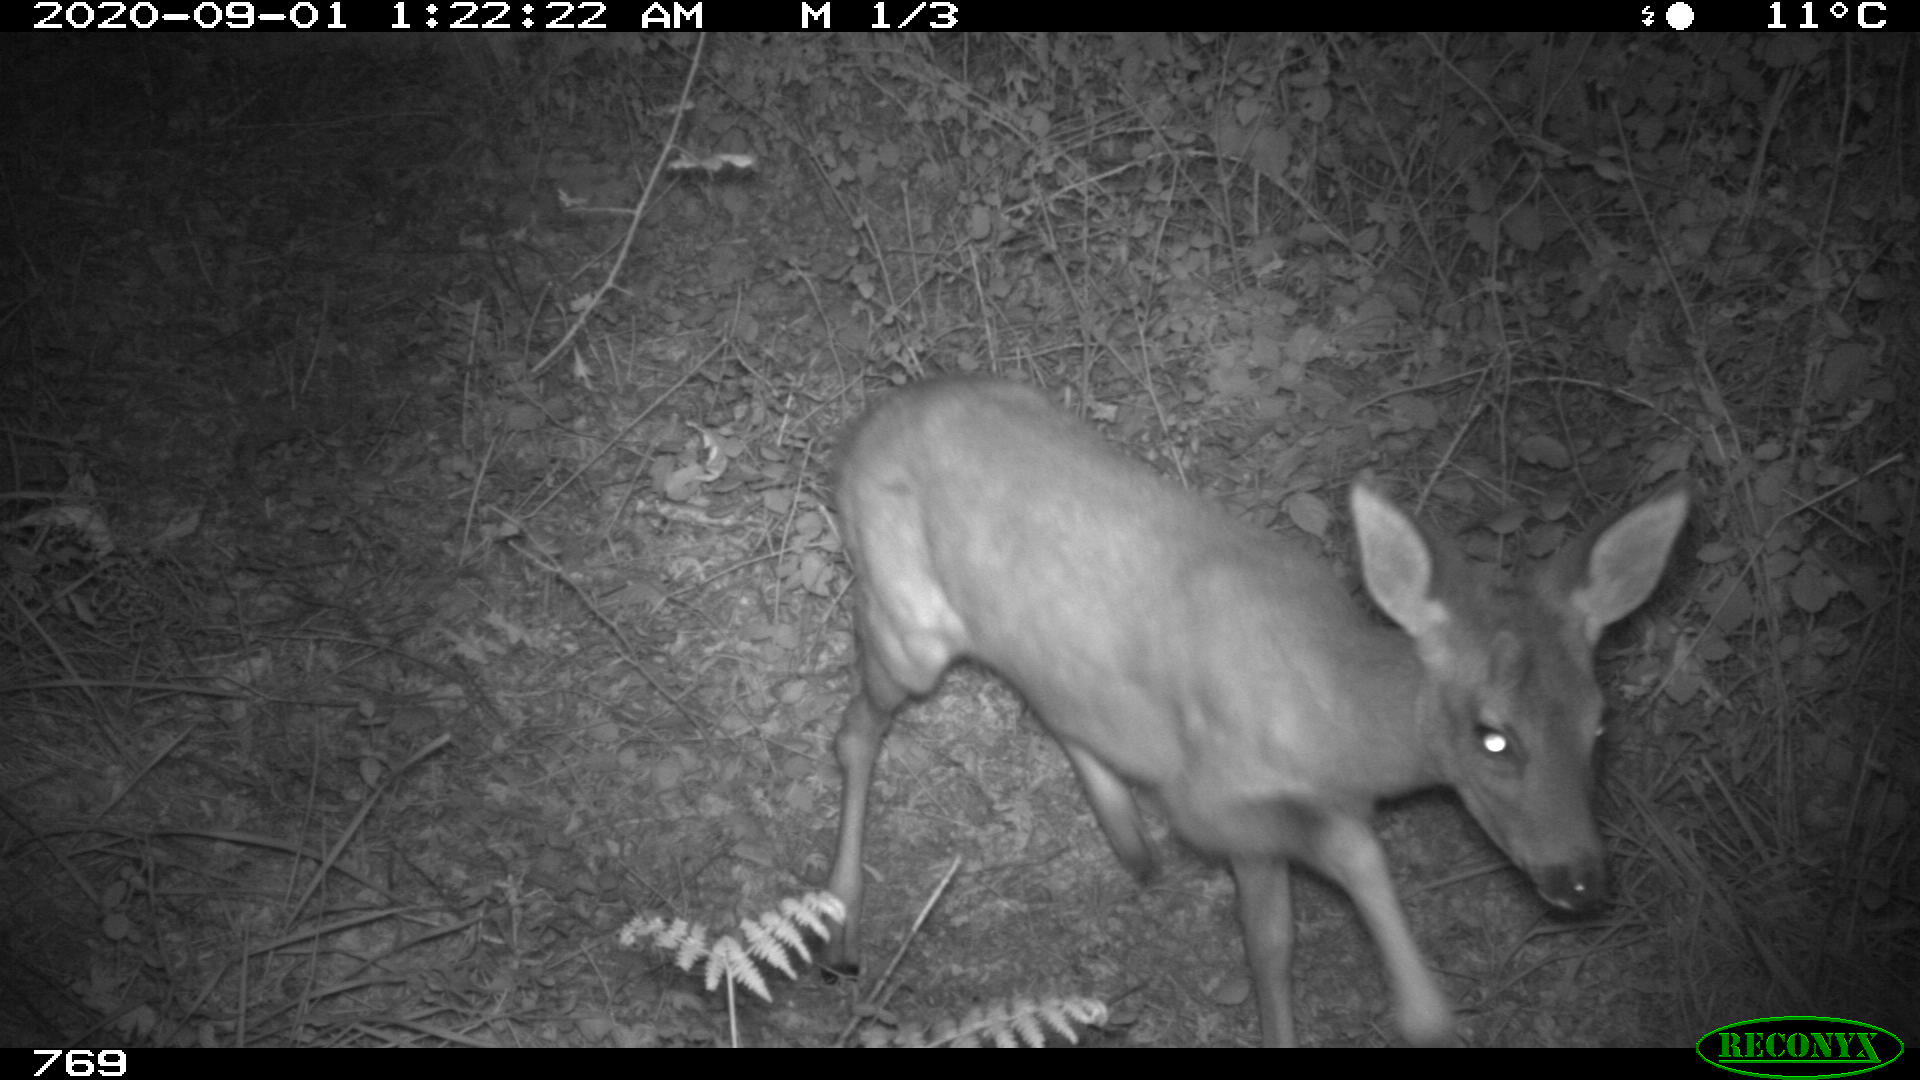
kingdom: Animalia
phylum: Chordata
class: Mammalia
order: Artiodactyla
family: Cervidae
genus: Capreolus
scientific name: Capreolus capreolus
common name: Western roe deer
